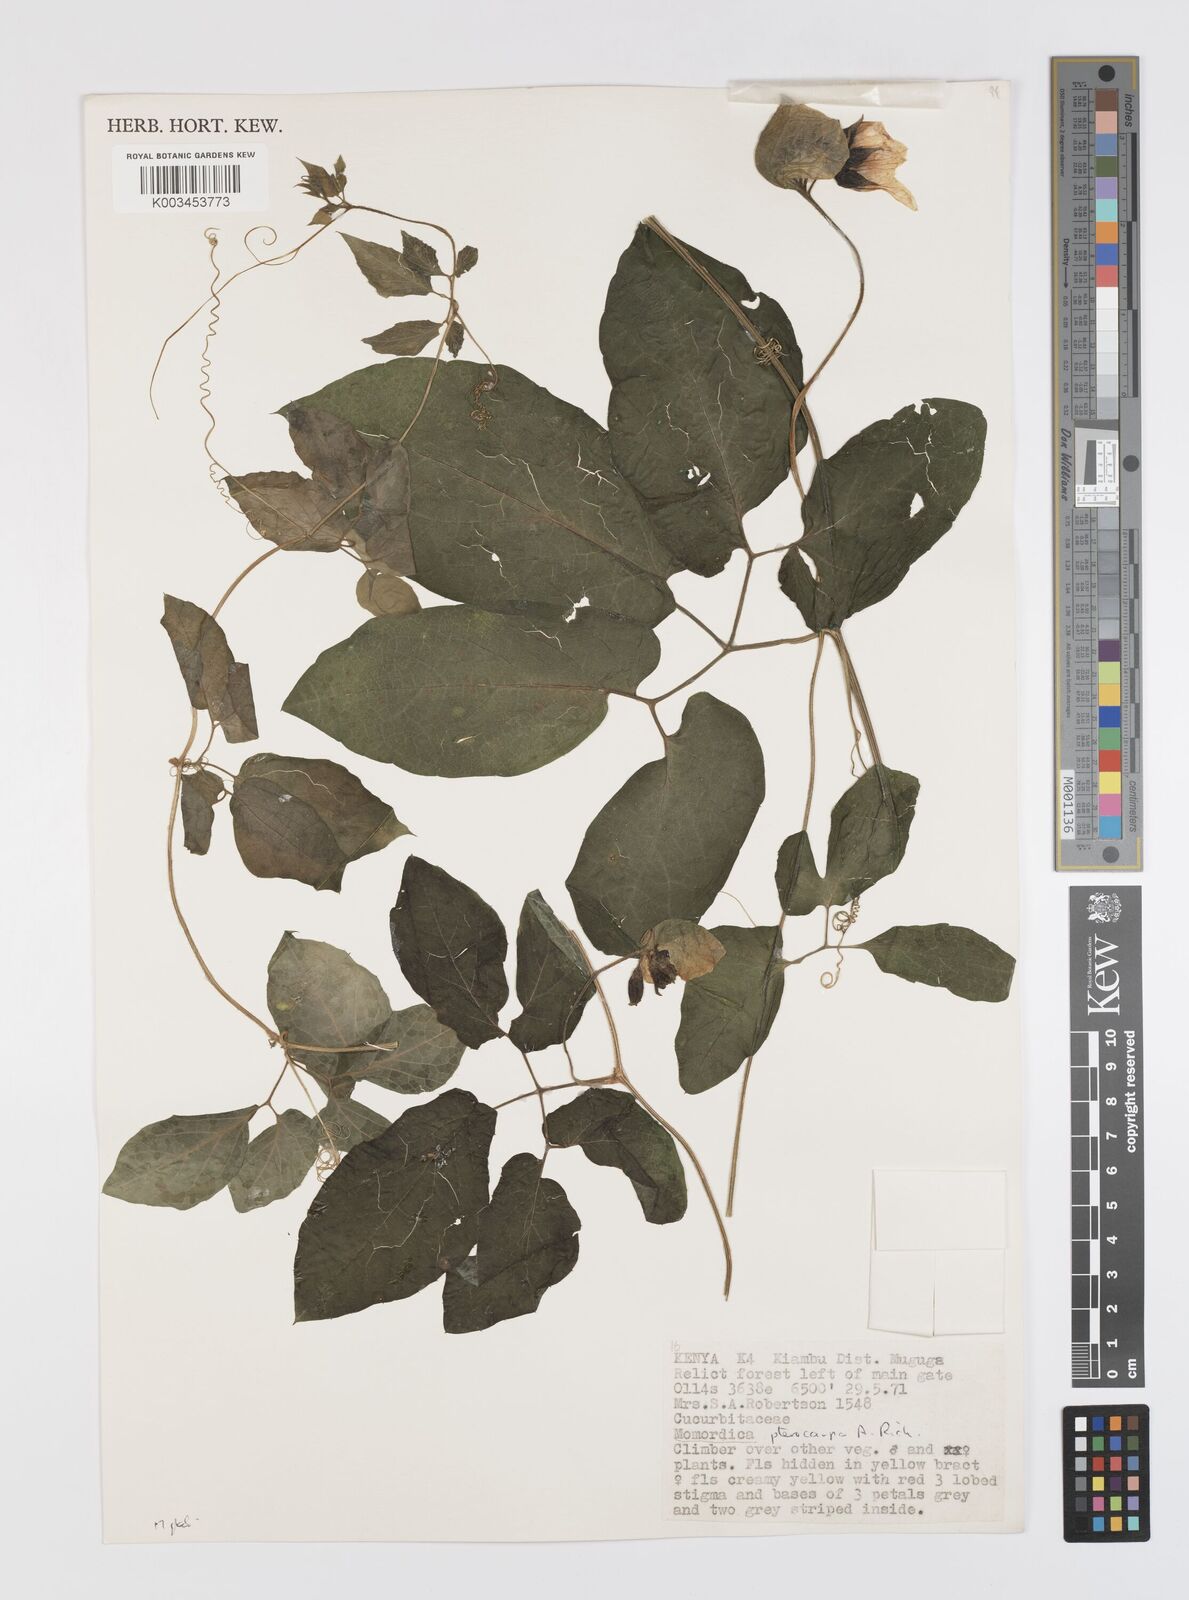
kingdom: Plantae
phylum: Tracheophyta
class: Magnoliopsida
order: Cucurbitales
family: Cucurbitaceae
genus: Momordica
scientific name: Momordica pterocarpa
